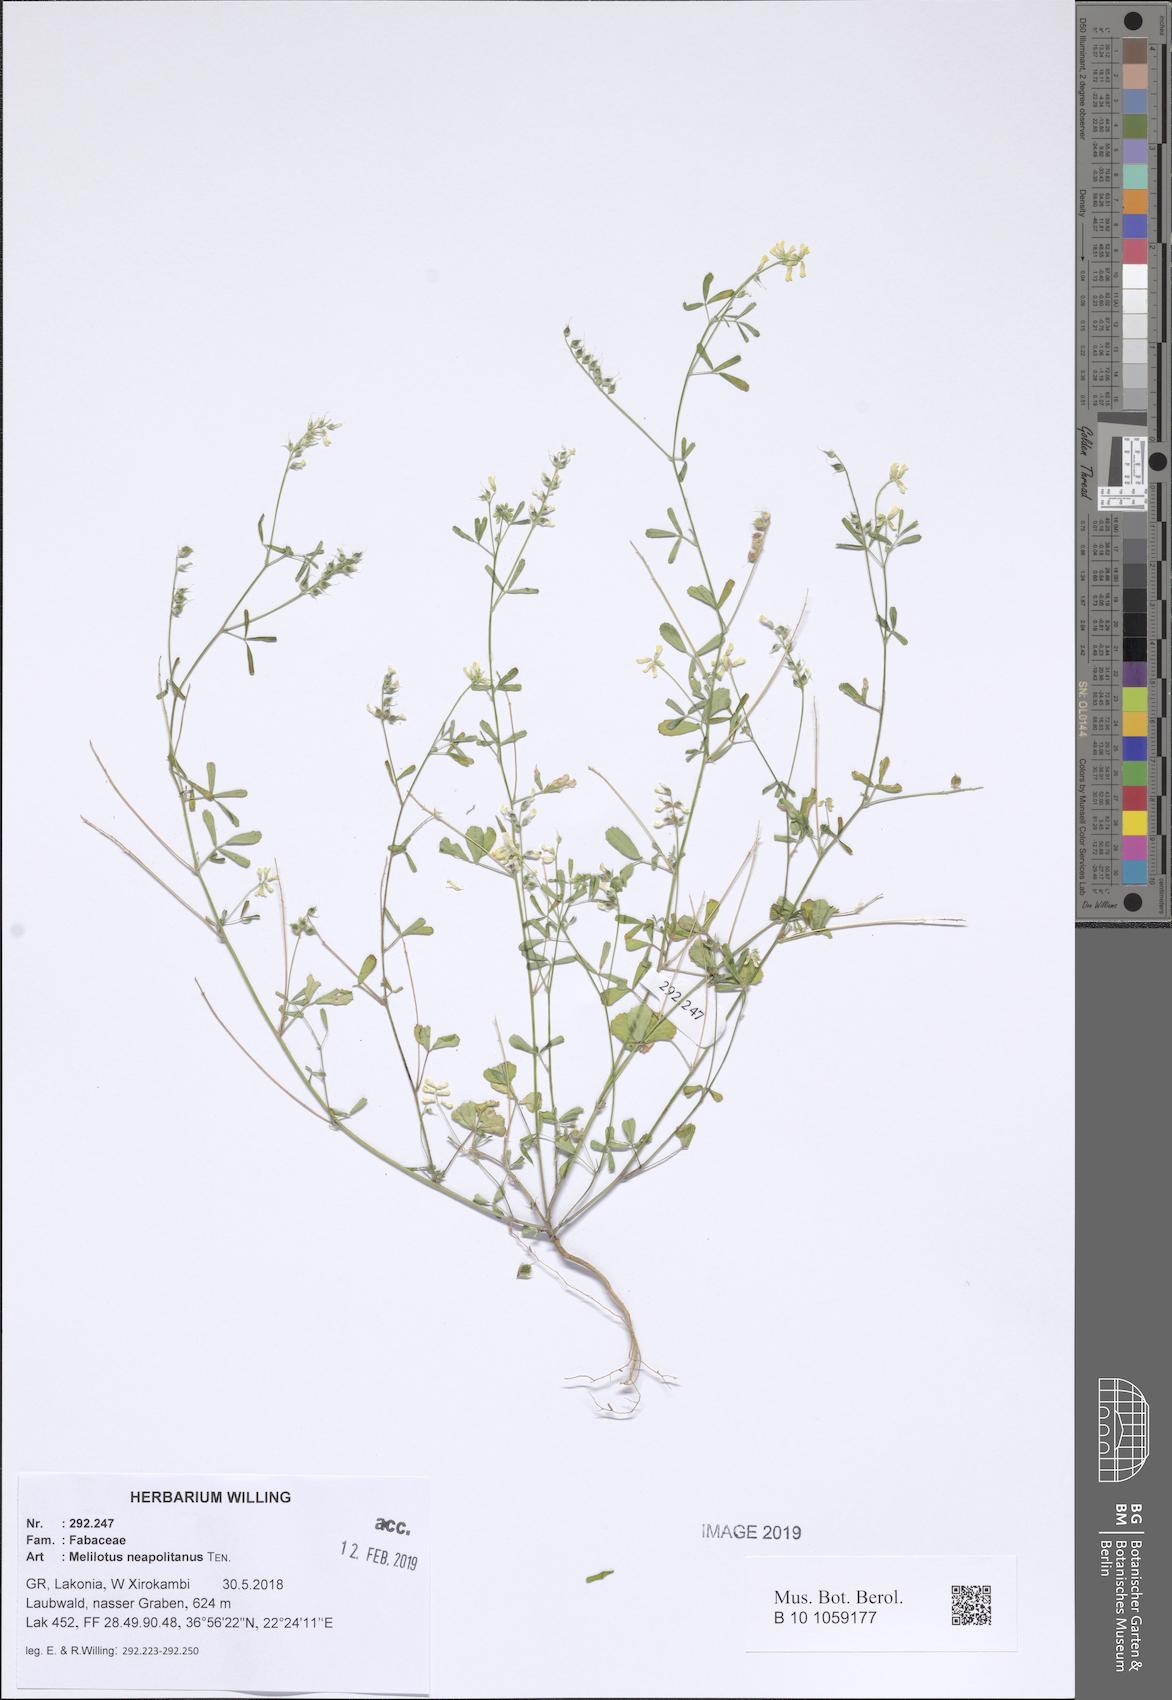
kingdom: Plantae
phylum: Tracheophyta
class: Magnoliopsida
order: Fabales
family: Fabaceae
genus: Melilotus
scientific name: Melilotus neapolitanus
